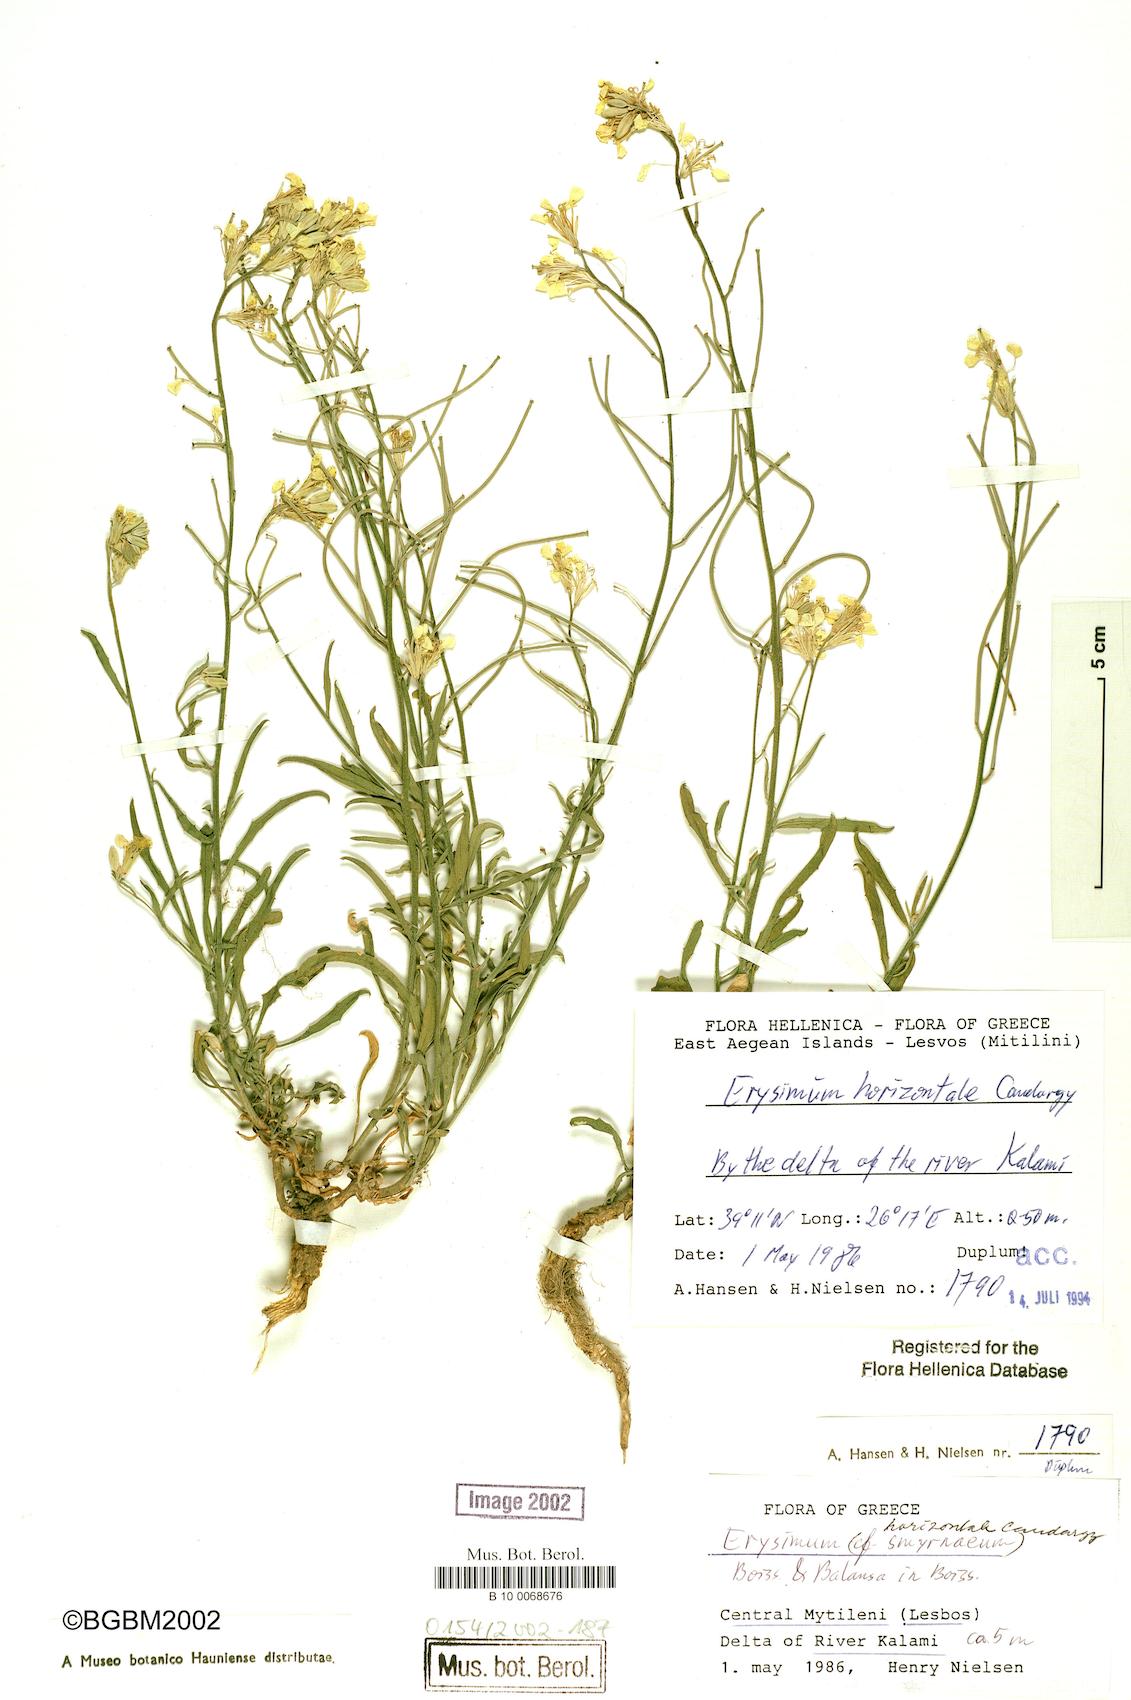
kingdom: Plantae
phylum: Tracheophyta
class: Magnoliopsida
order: Brassicales
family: Brassicaceae
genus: Erysimum
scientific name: Erysimum horizontale
